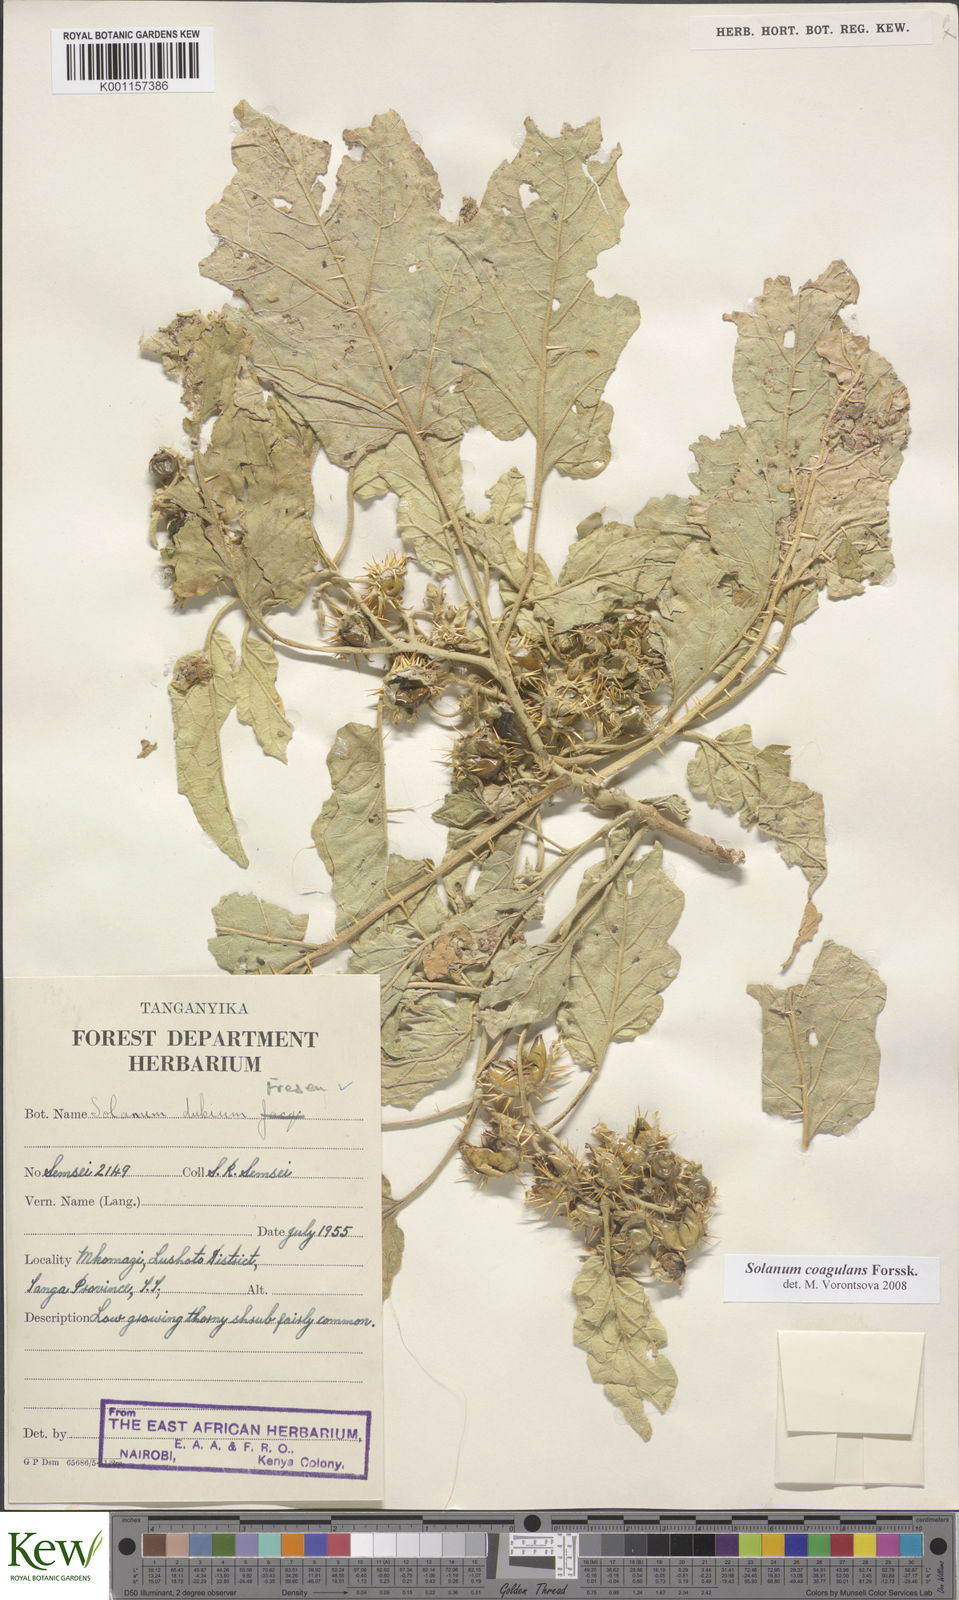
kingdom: Plantae
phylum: Tracheophyta
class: Magnoliopsida
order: Solanales
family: Solanaceae
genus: Solanum
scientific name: Solanum coagulans
